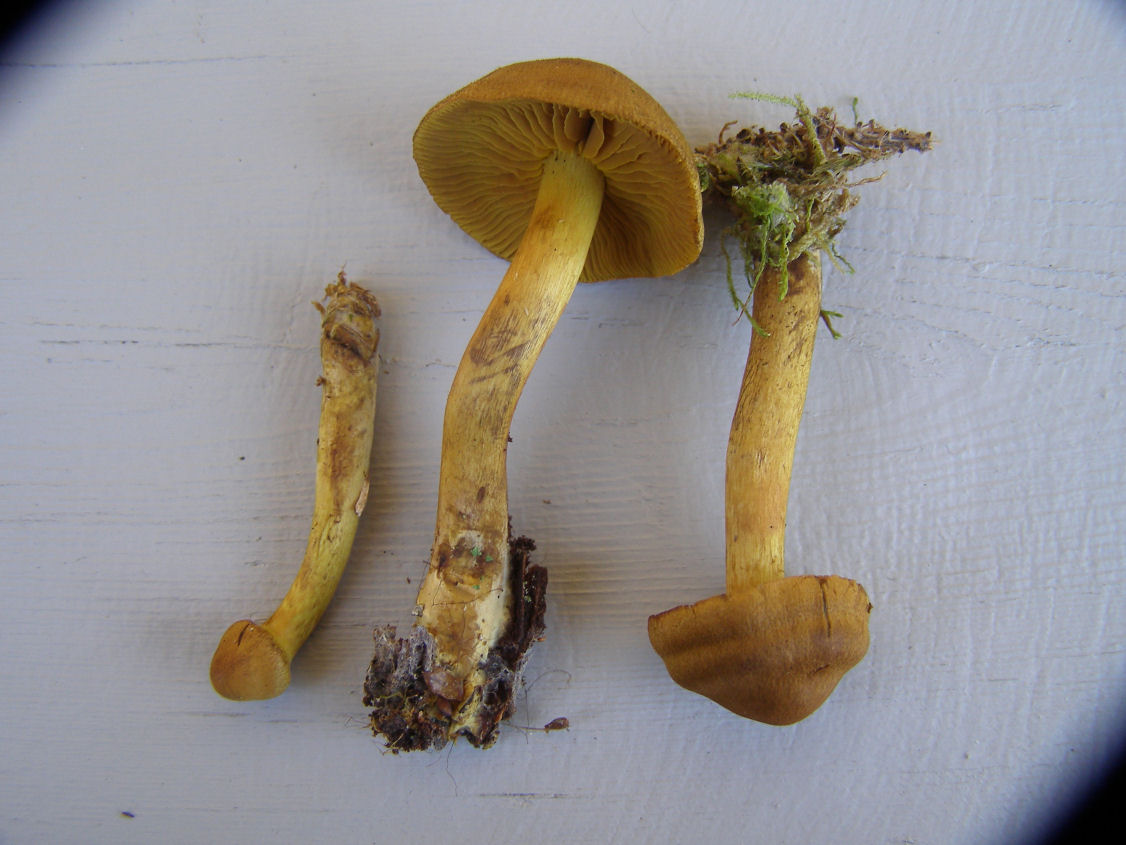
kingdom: Fungi
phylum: Basidiomycota
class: Agaricomycetes
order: Agaricales
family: Cortinariaceae
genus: Cortinarius
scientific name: Cortinarius
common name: gulbladet slørhat
